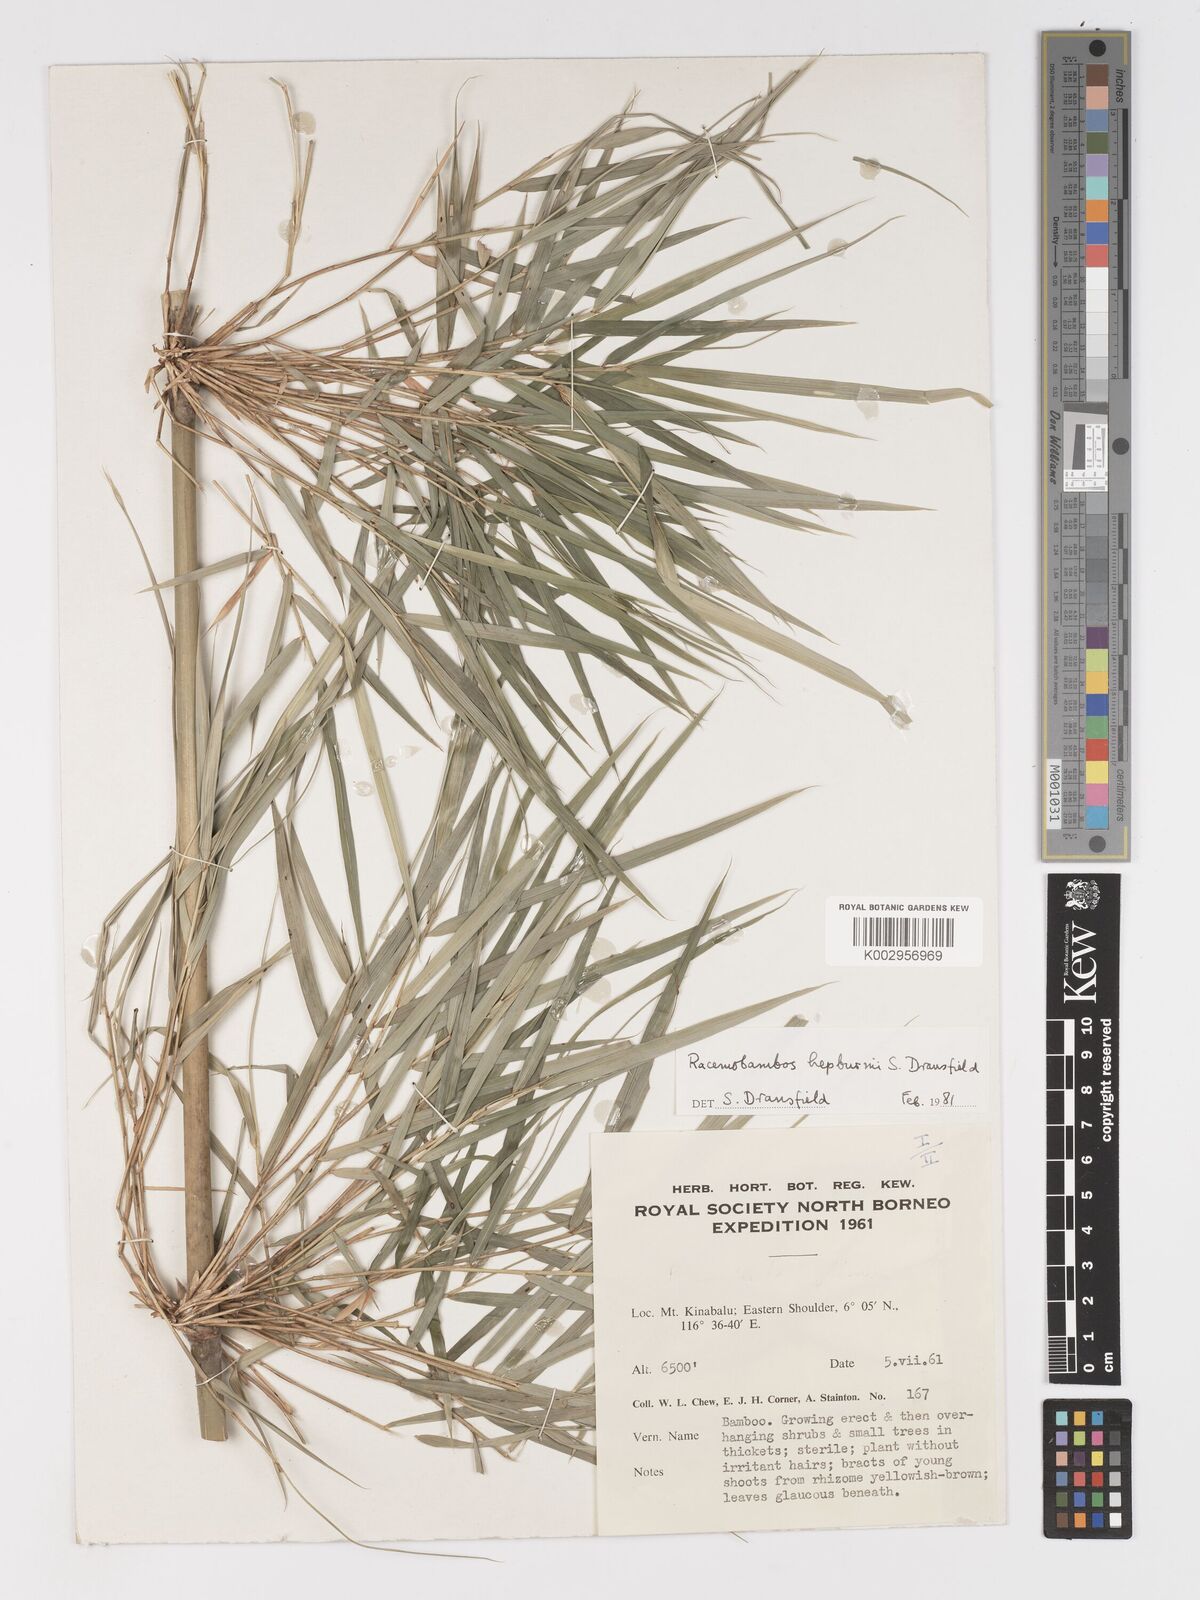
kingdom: Plantae
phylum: Tracheophyta
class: Liliopsida
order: Poales
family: Poaceae
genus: Racemobambos
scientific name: Racemobambos hepburnii
